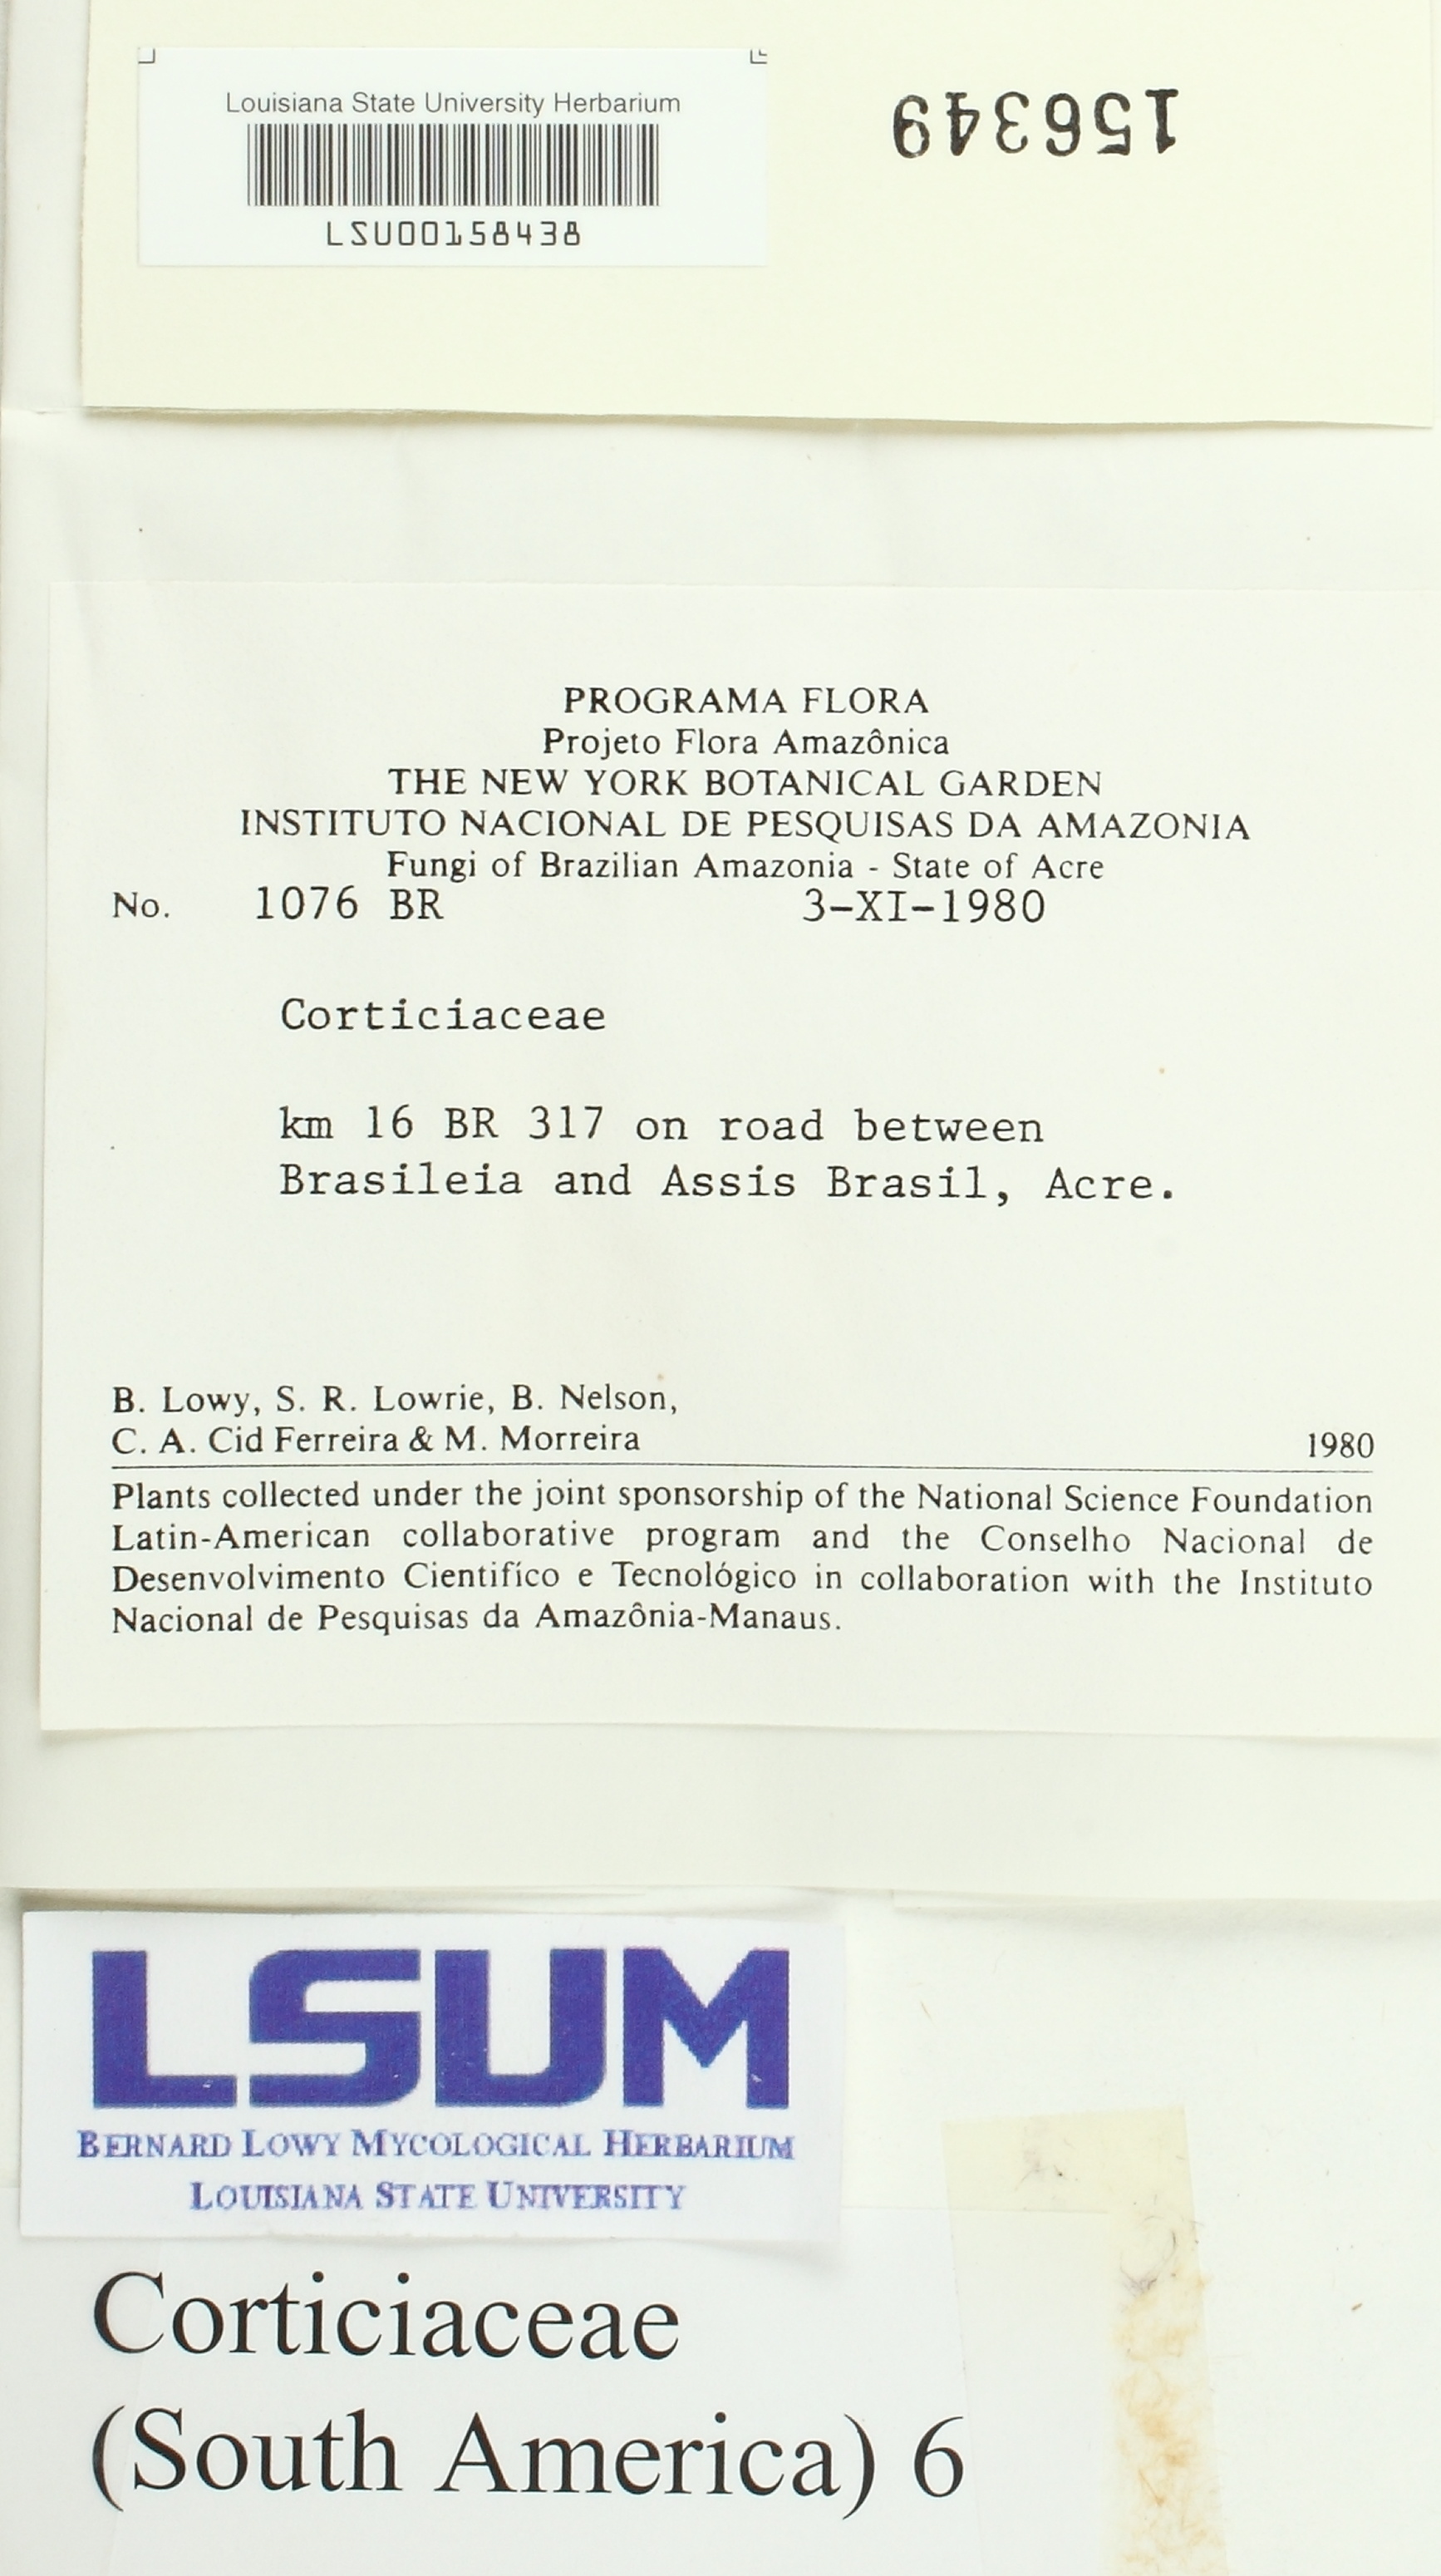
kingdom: Fungi
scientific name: Fungi
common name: Fungi
